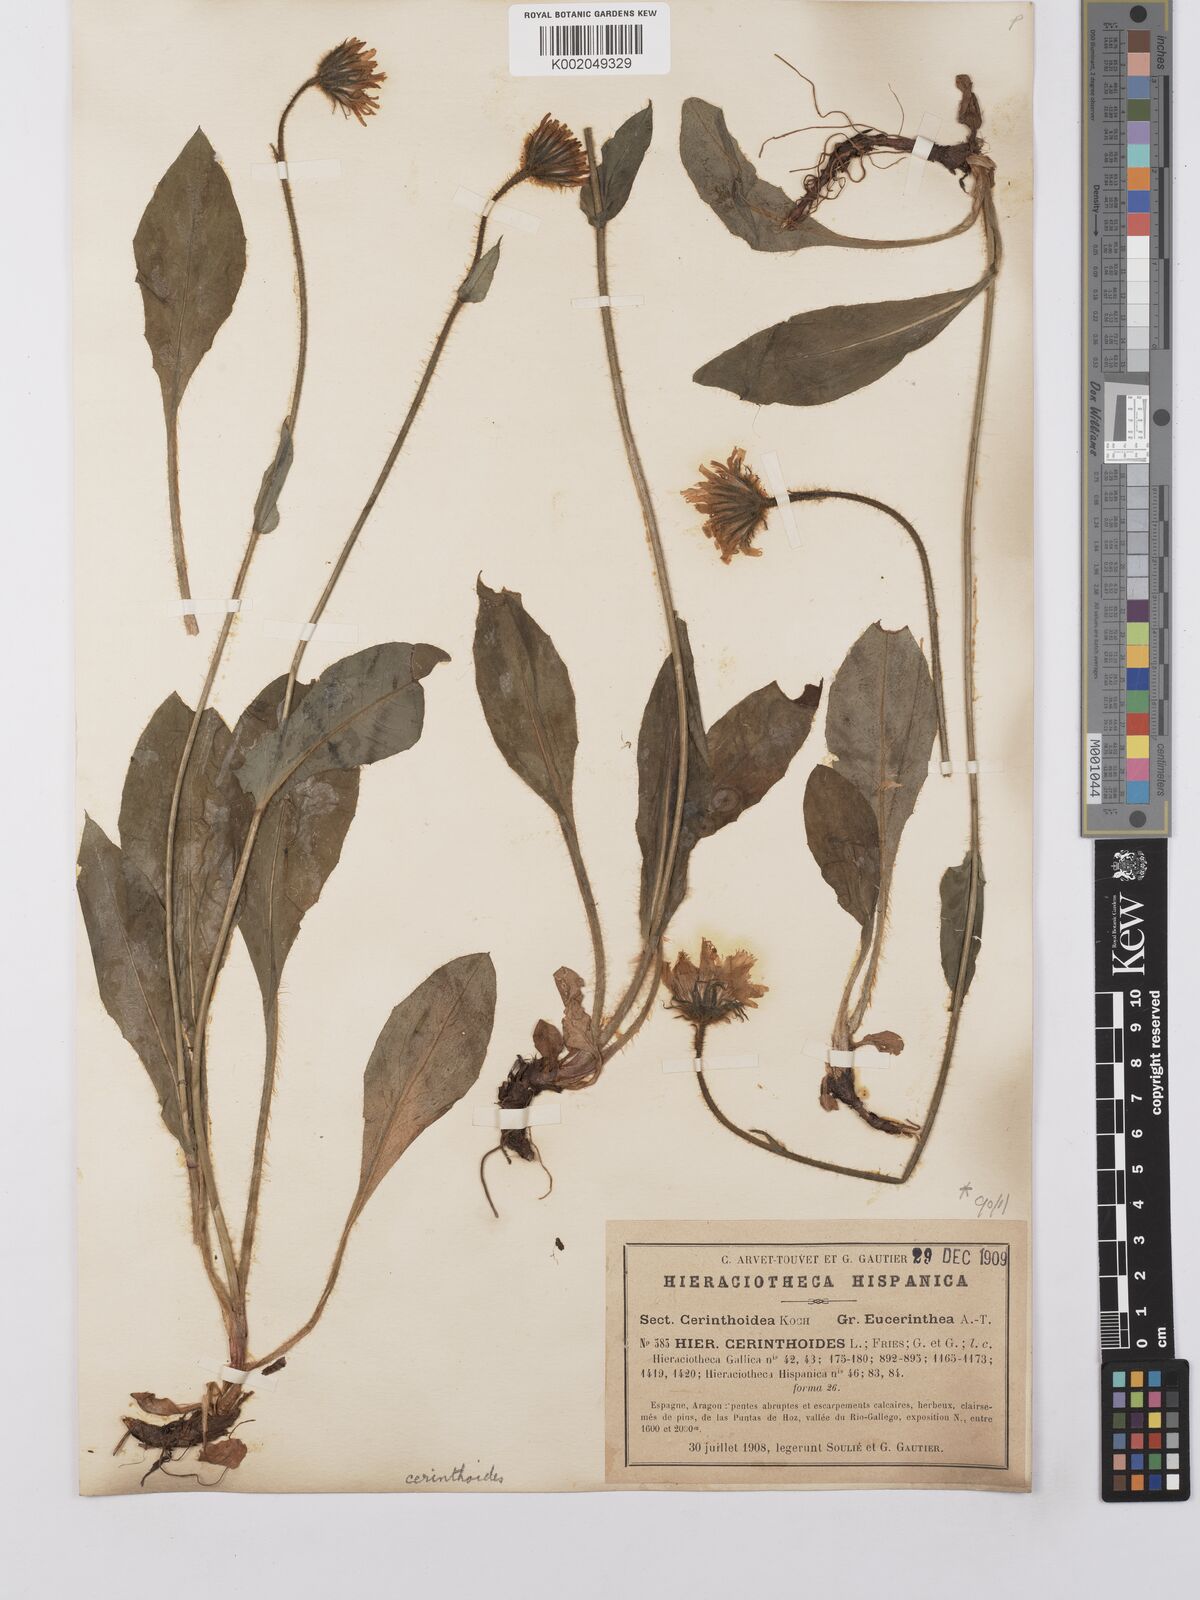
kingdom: Plantae
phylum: Tracheophyta
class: Magnoliopsida
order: Asterales
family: Asteraceae
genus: Hieracium
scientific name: Hieracium cerinthoides
